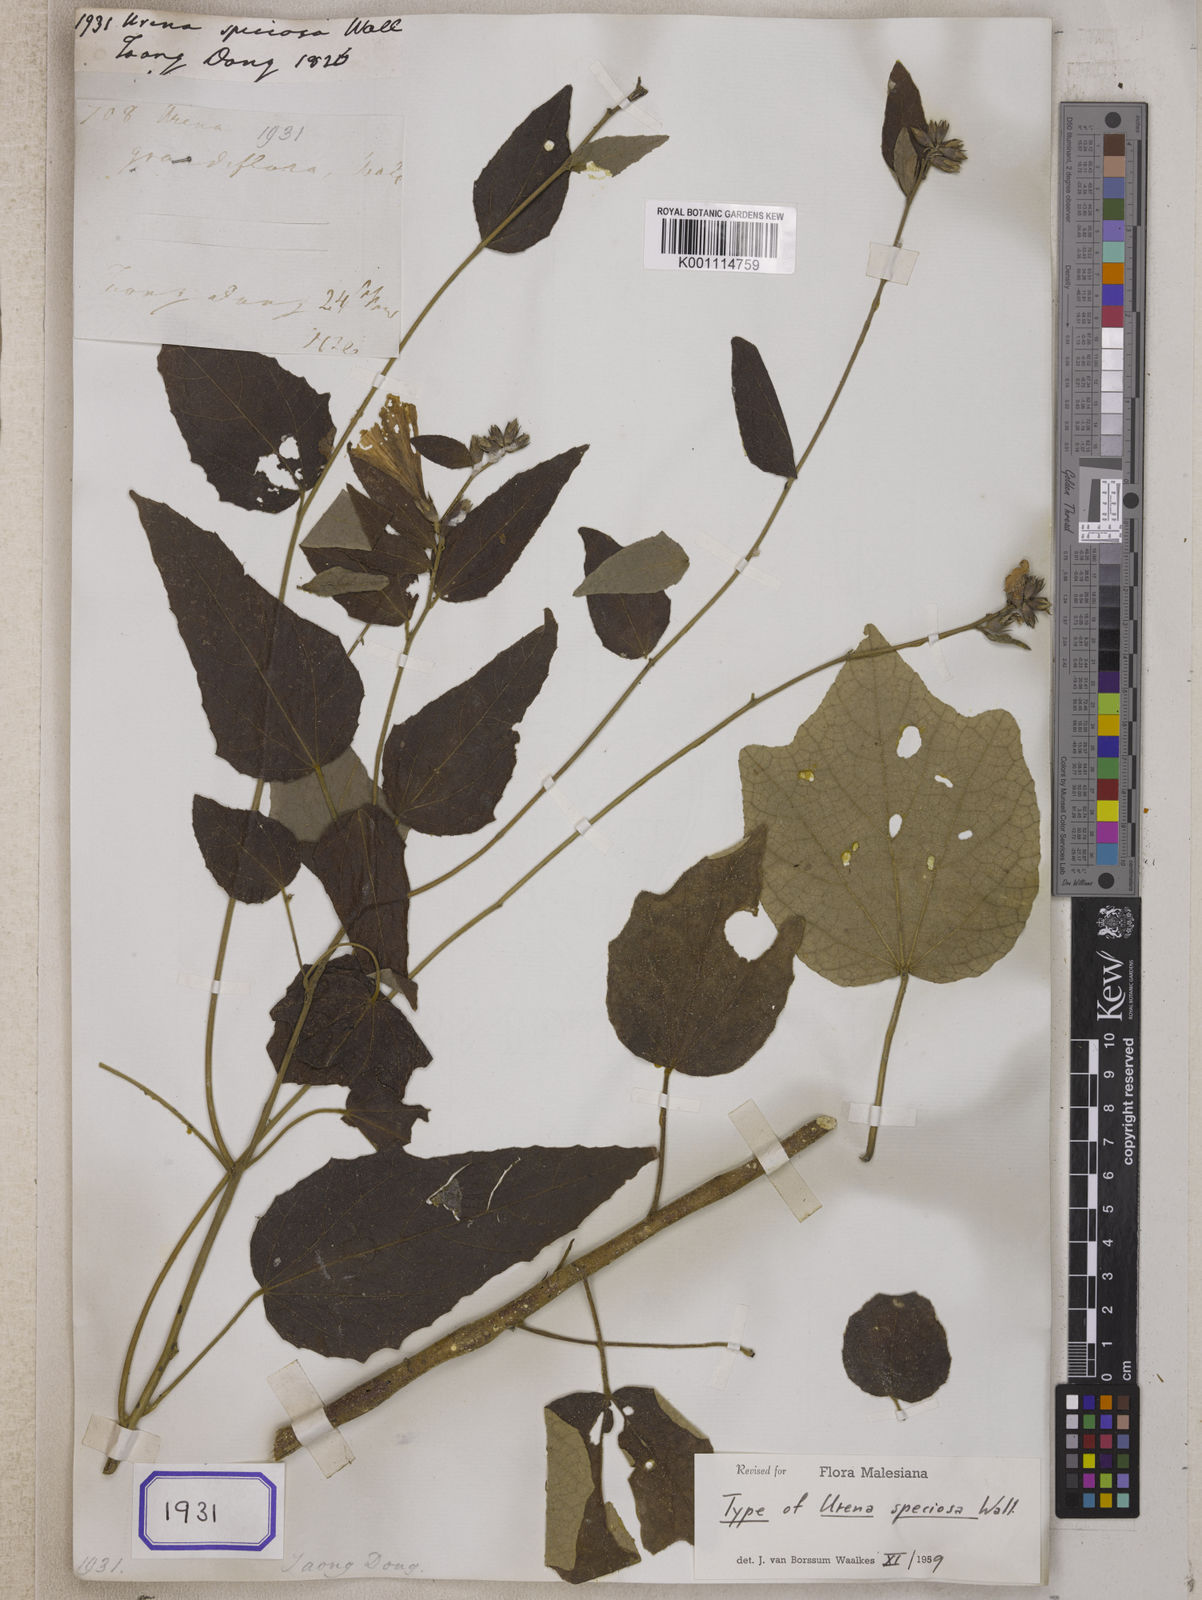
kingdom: Plantae
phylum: Tracheophyta
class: Magnoliopsida
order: Malvales
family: Malvaceae
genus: Urena
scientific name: Urena repanda
